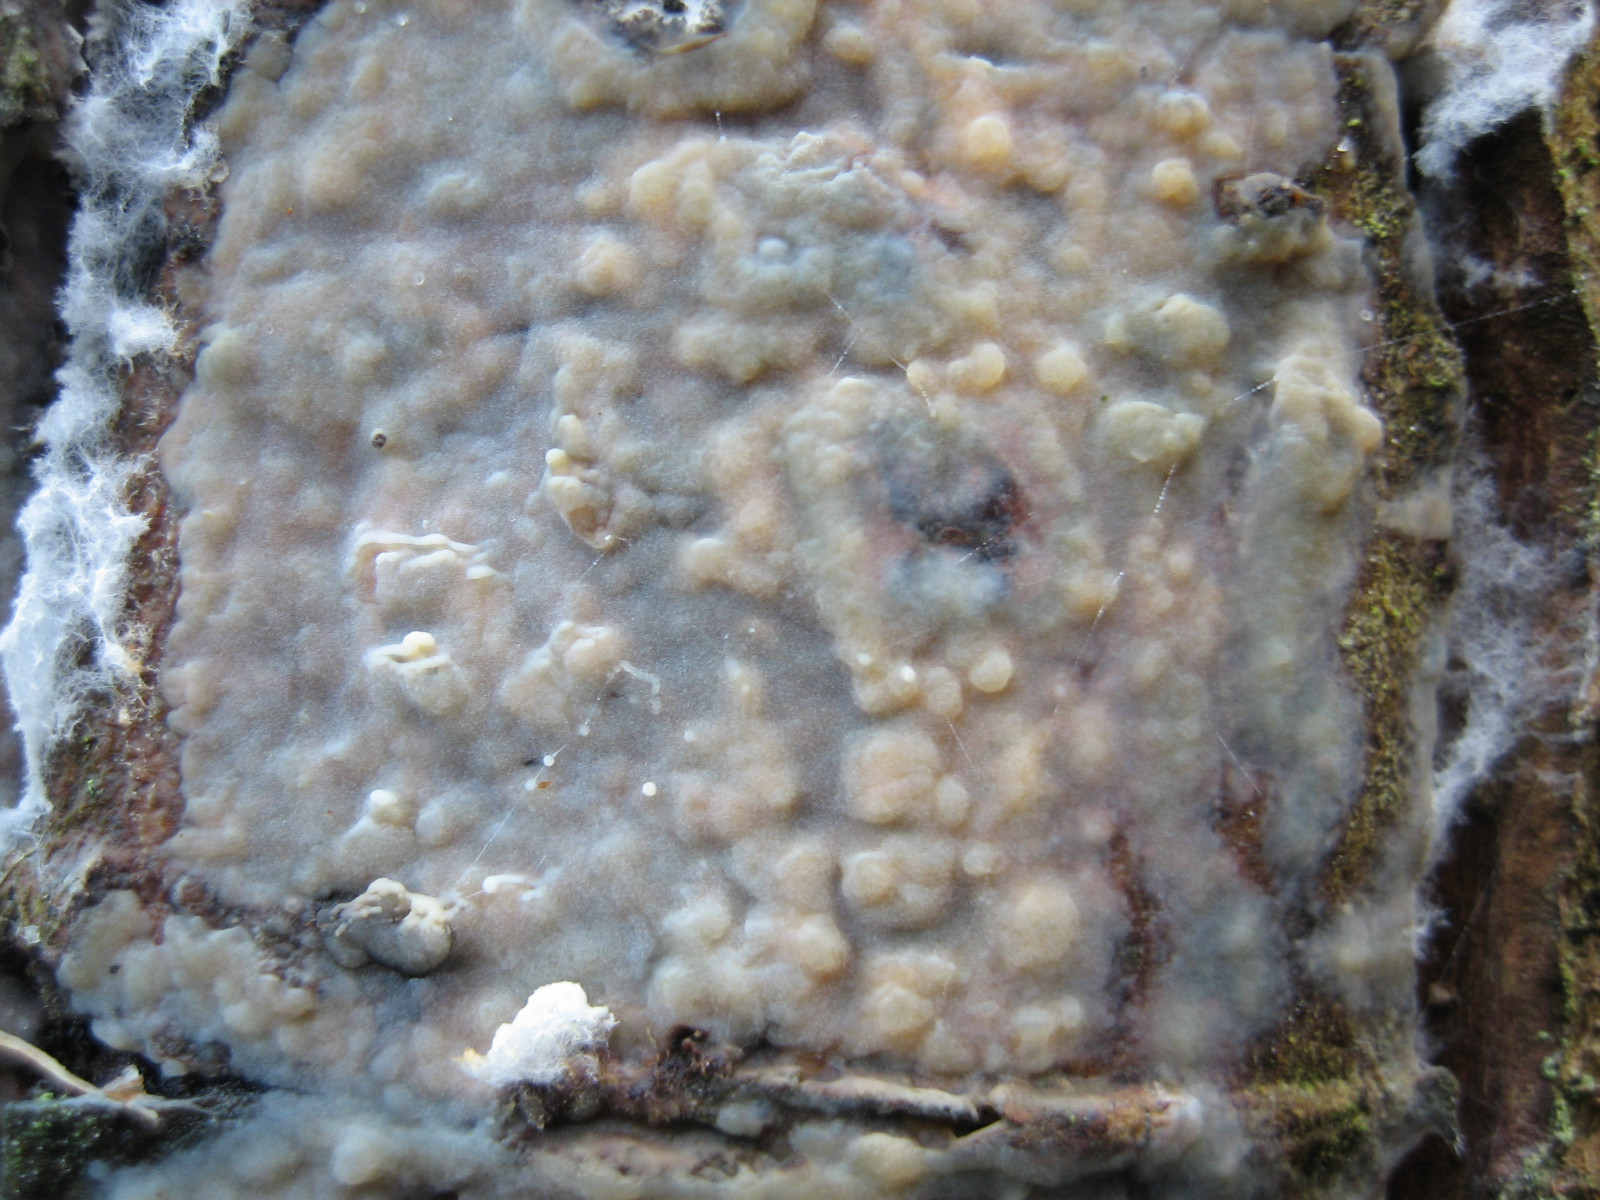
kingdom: Fungi
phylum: Basidiomycota
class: Tremellomycetes
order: Tremellales
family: Exidiaceae
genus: Exidiopsis
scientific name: Exidiopsis
